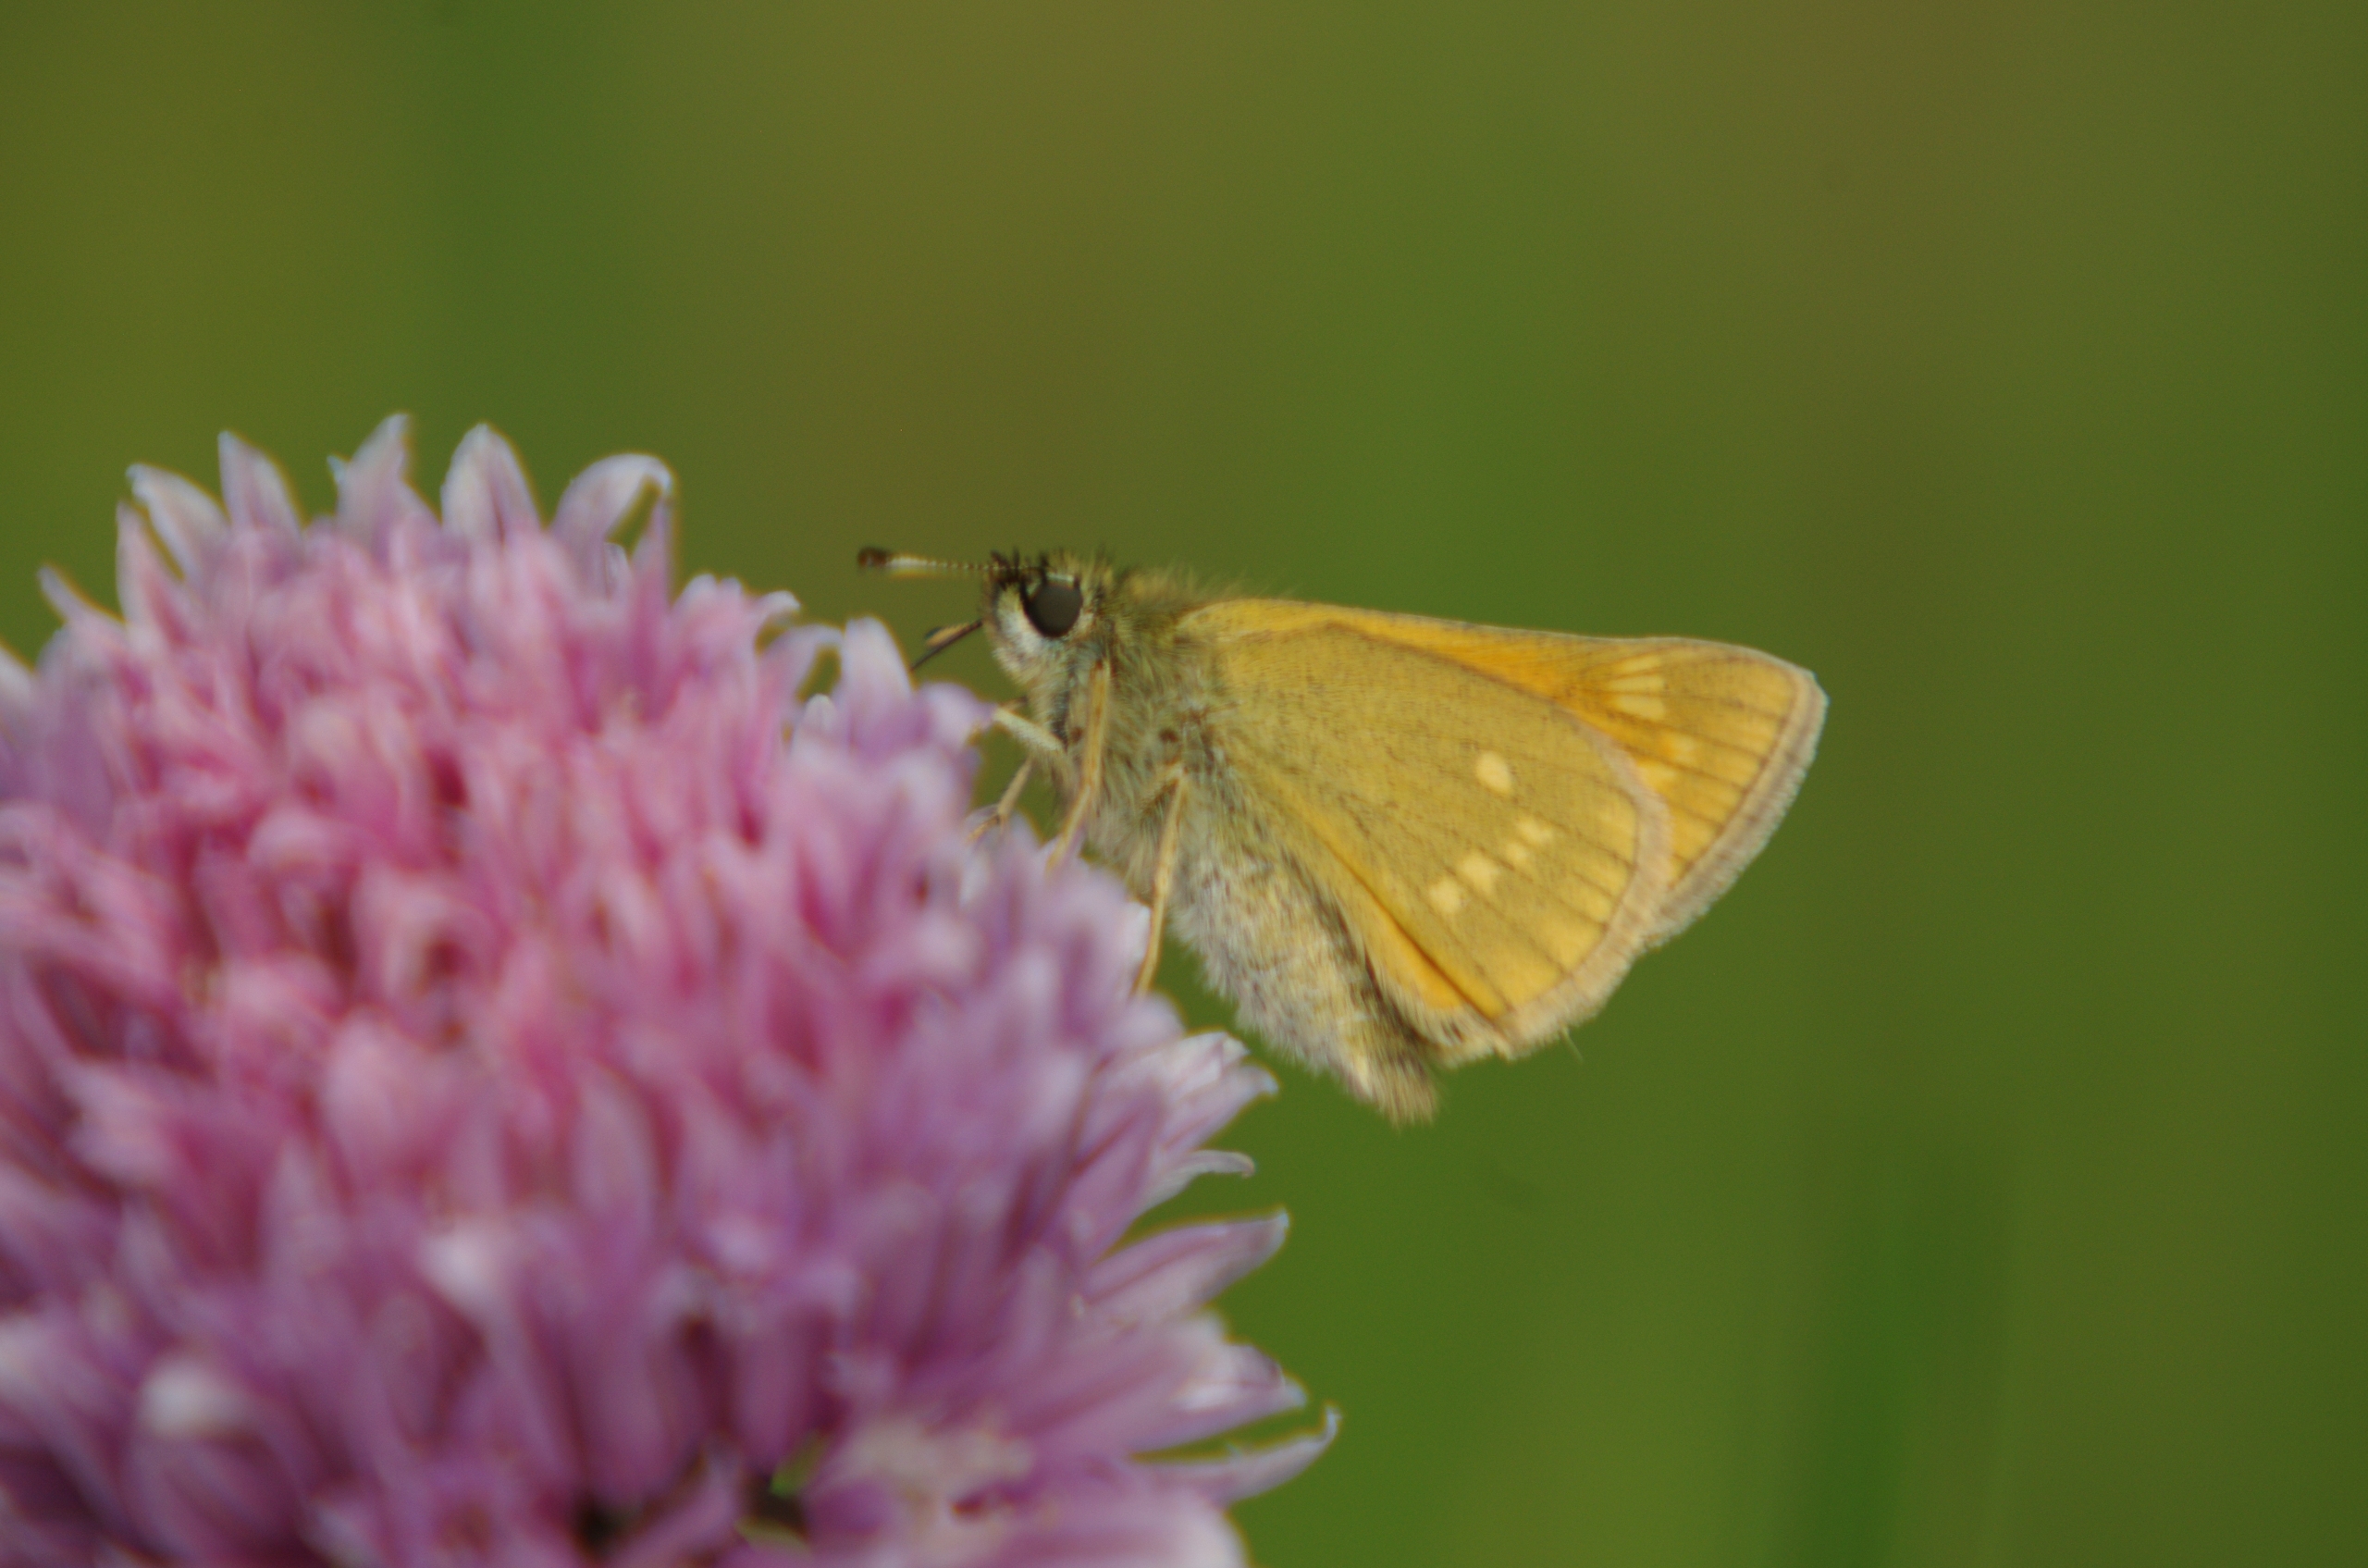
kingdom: Animalia
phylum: Arthropoda
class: Insecta
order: Lepidoptera
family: Hesperiidae
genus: Ochlodes
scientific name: Ochlodes venata
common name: Stor bredpande
